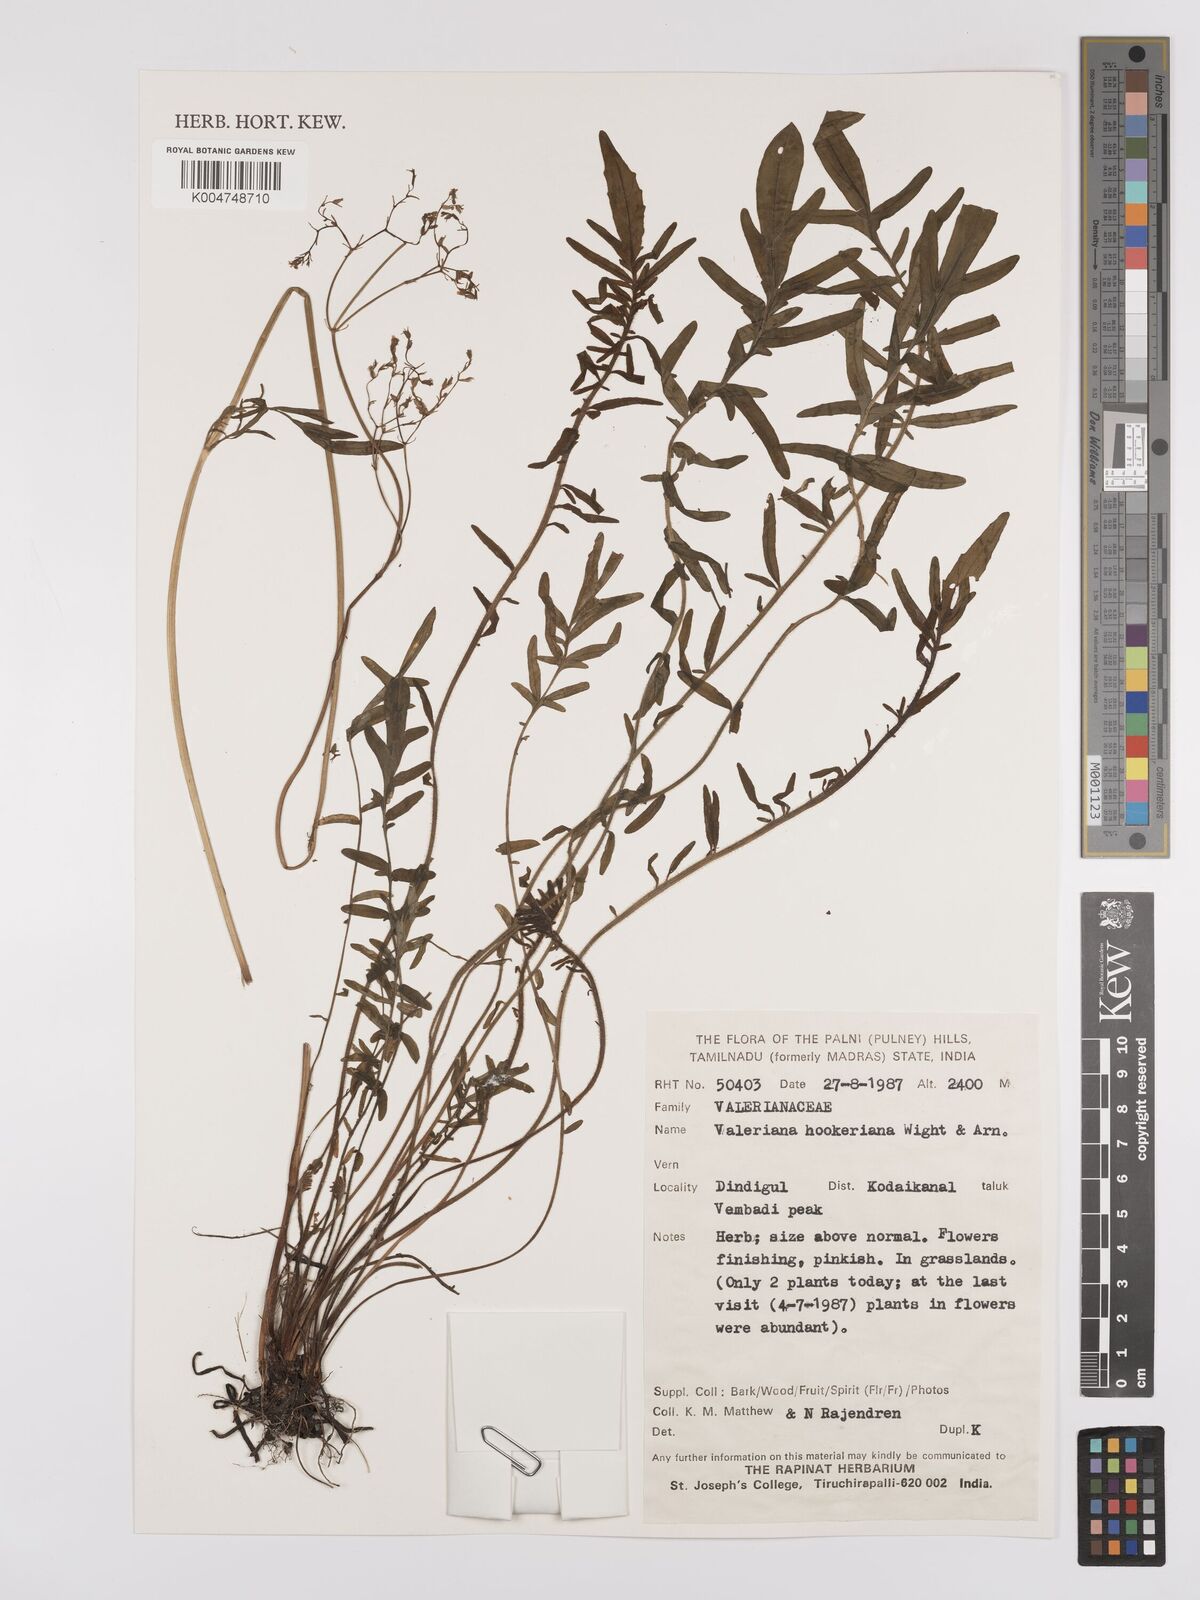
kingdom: Plantae
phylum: Tracheophyta
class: Magnoliopsida
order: Dipsacales
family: Caprifoliaceae
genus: Valeriana
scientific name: Valeriana hardwickei
